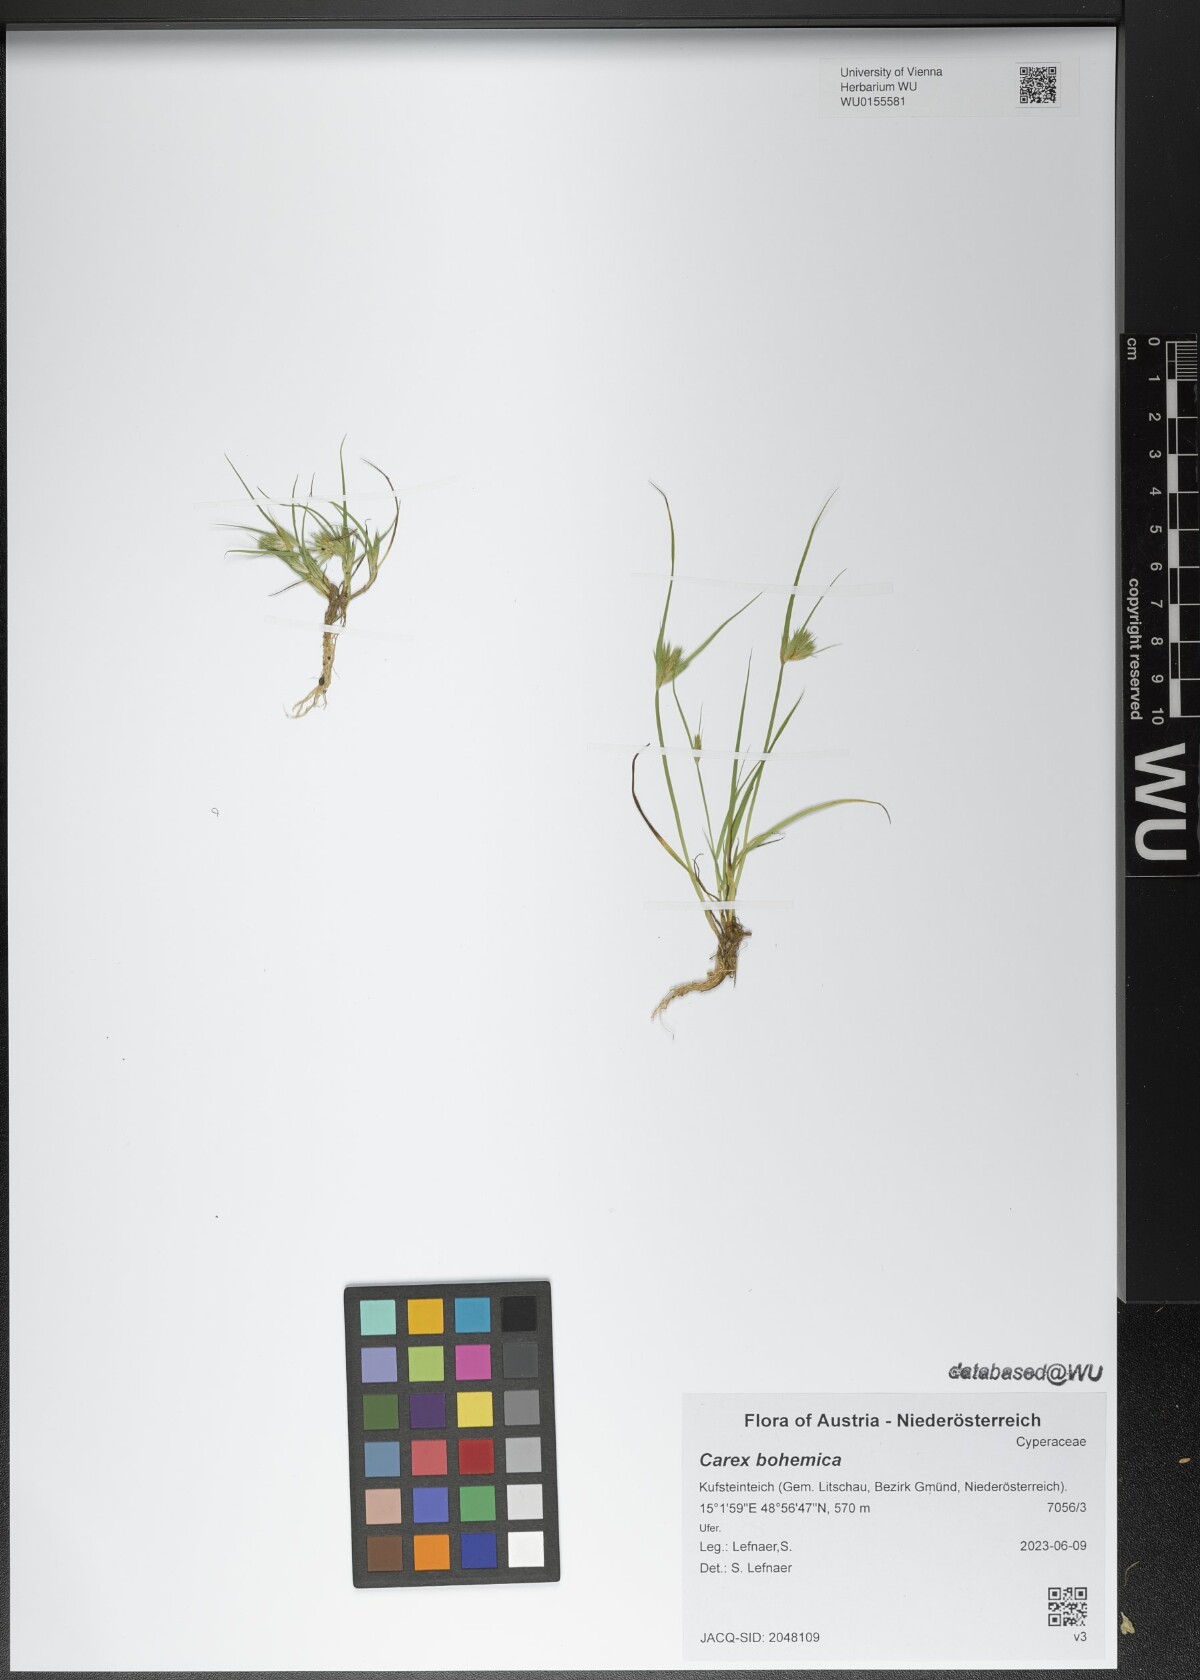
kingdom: Plantae
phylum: Tracheophyta
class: Liliopsida
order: Poales
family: Cyperaceae
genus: Carex
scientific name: Carex bohemica
